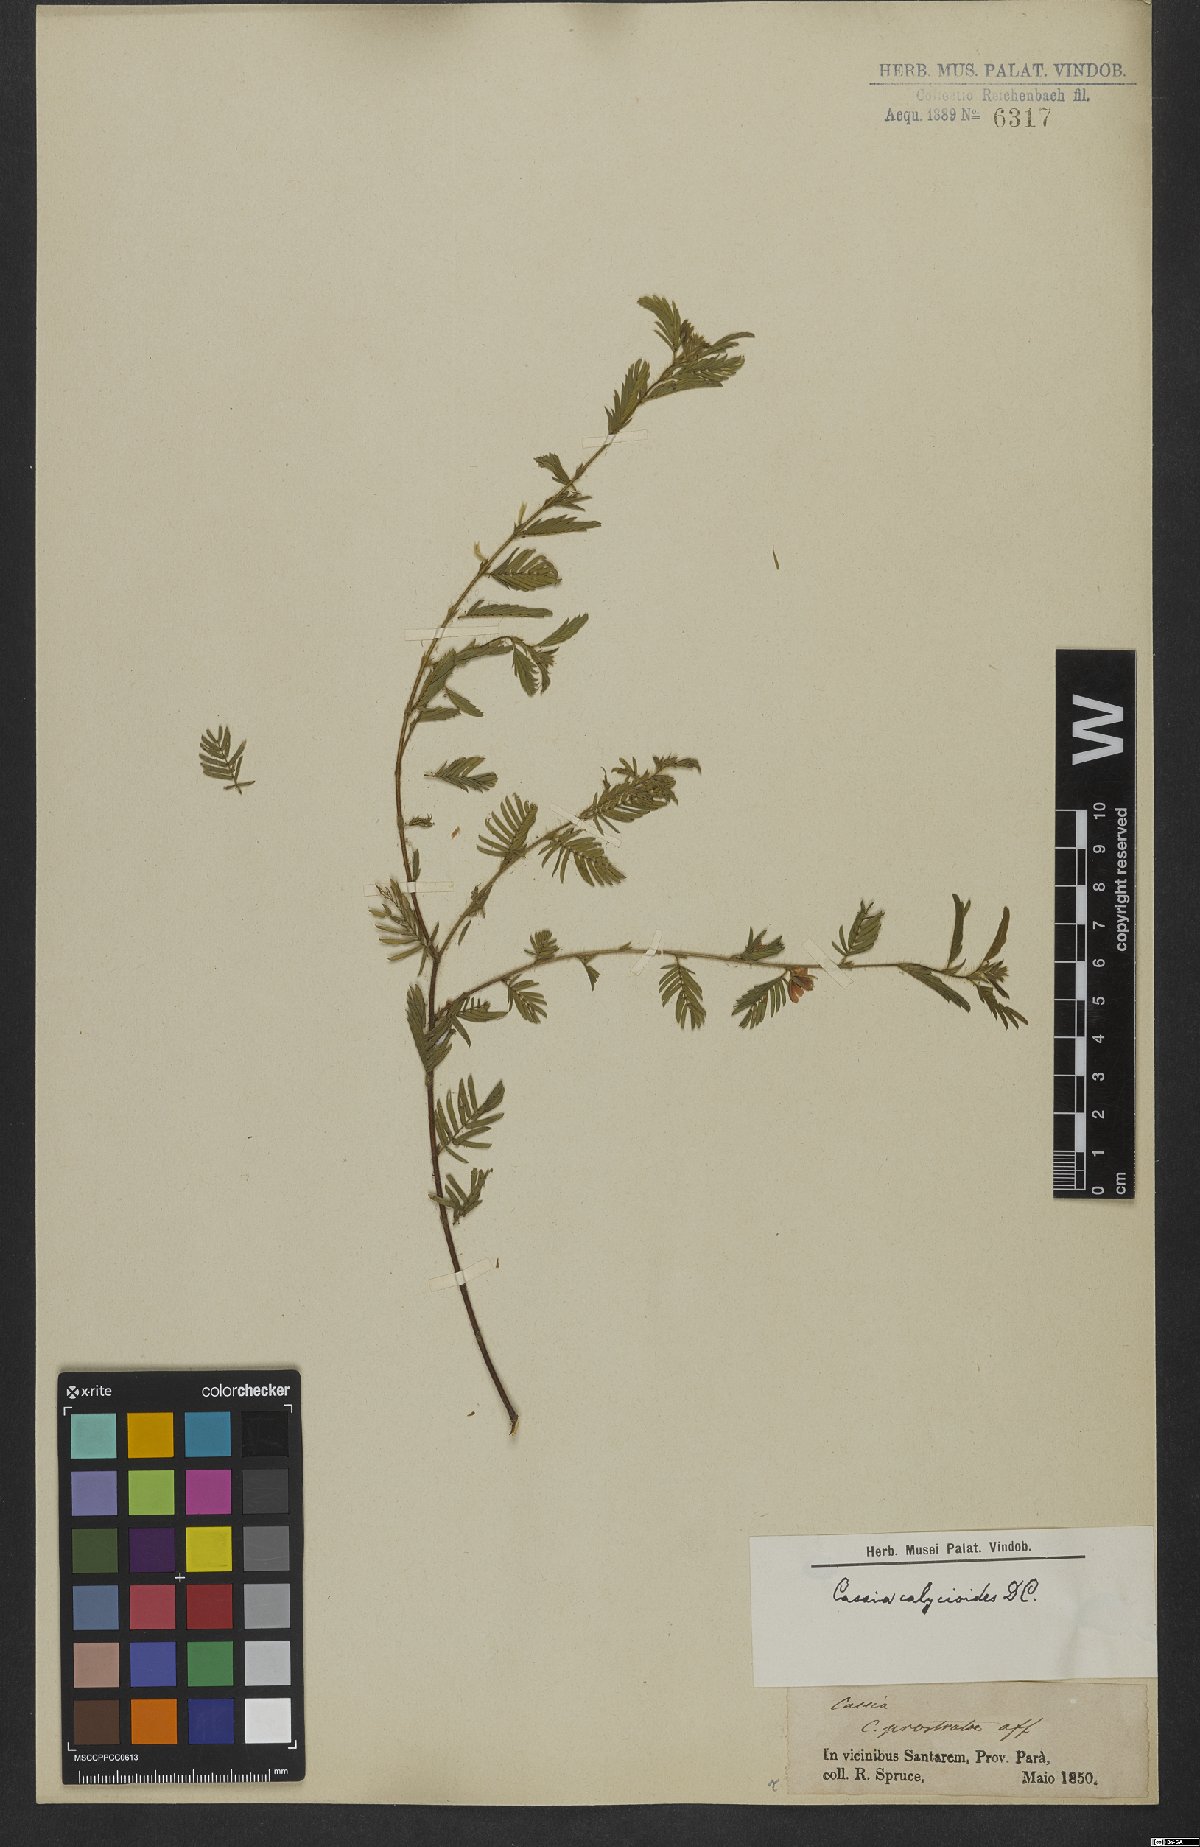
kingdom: Plantae
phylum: Tracheophyta
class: Magnoliopsida
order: Fabales
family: Fabaceae
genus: Chamaecrista
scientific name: Chamaecrista calycioides
